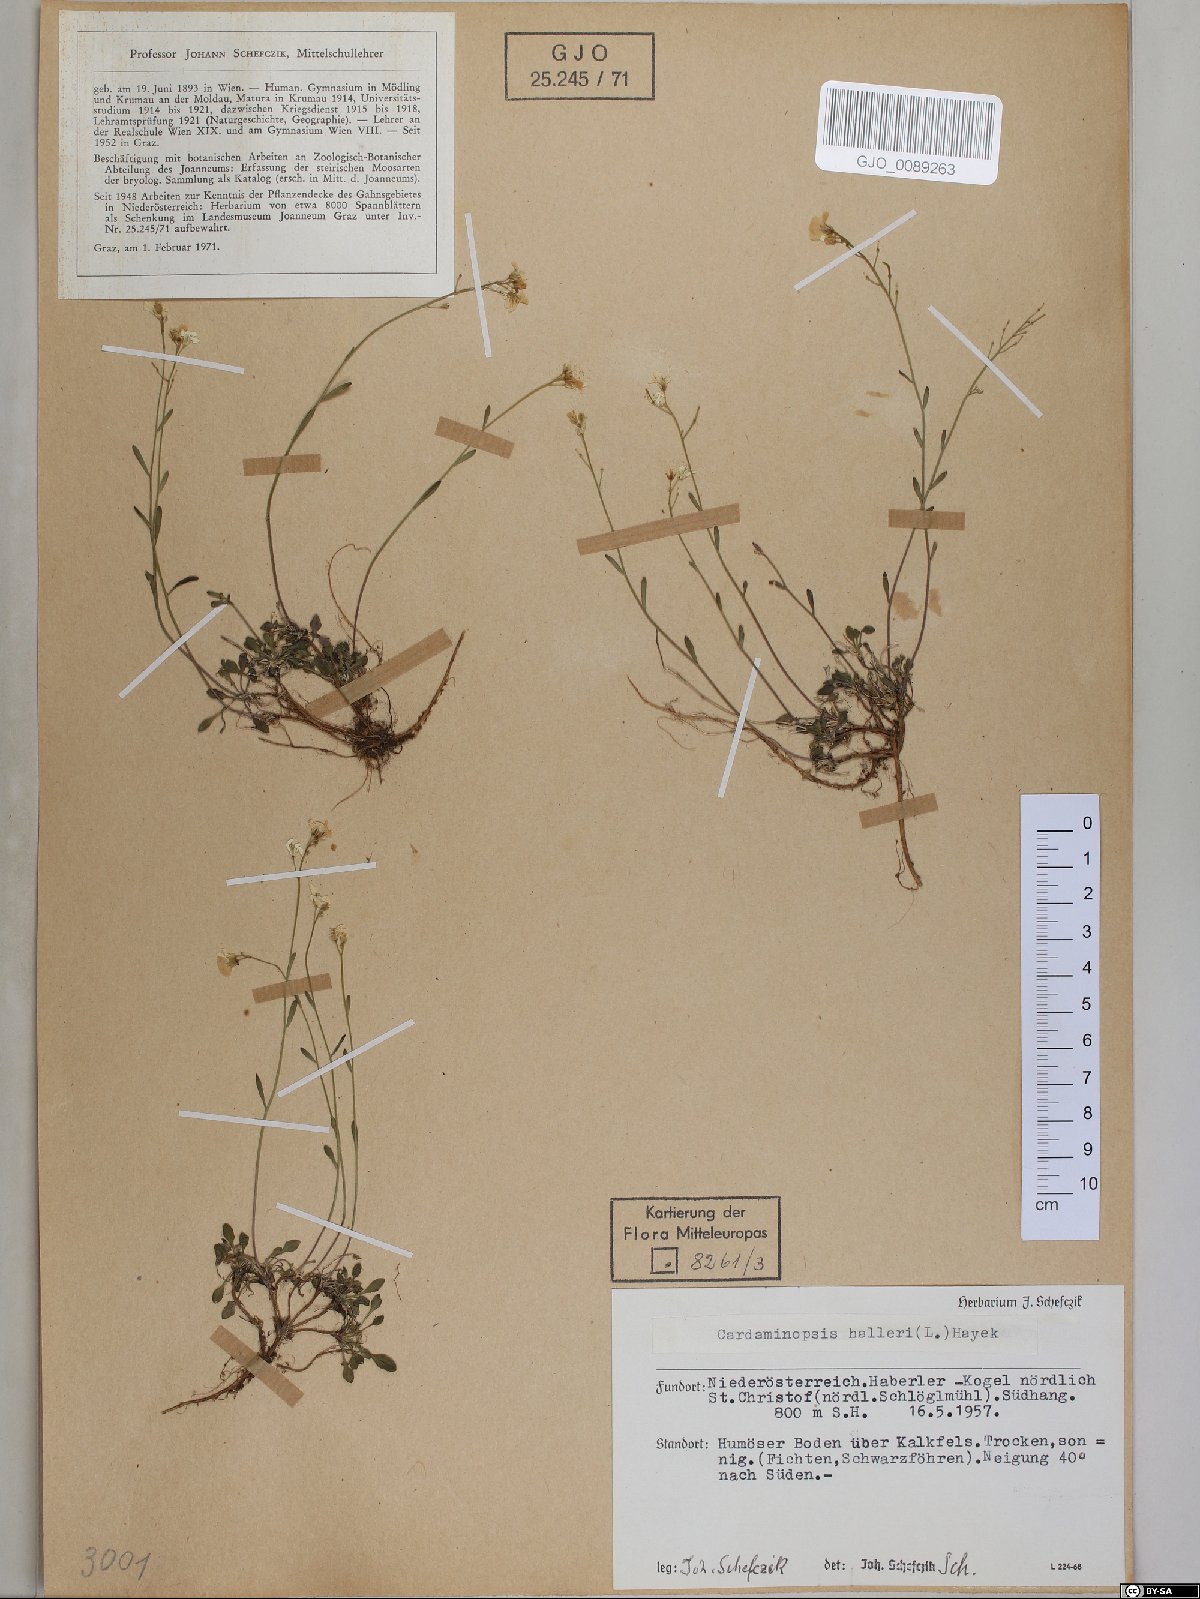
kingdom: Plantae
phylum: Tracheophyta
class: Magnoliopsida
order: Brassicales
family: Brassicaceae
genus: Arabidopsis
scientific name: Arabidopsis halleri
